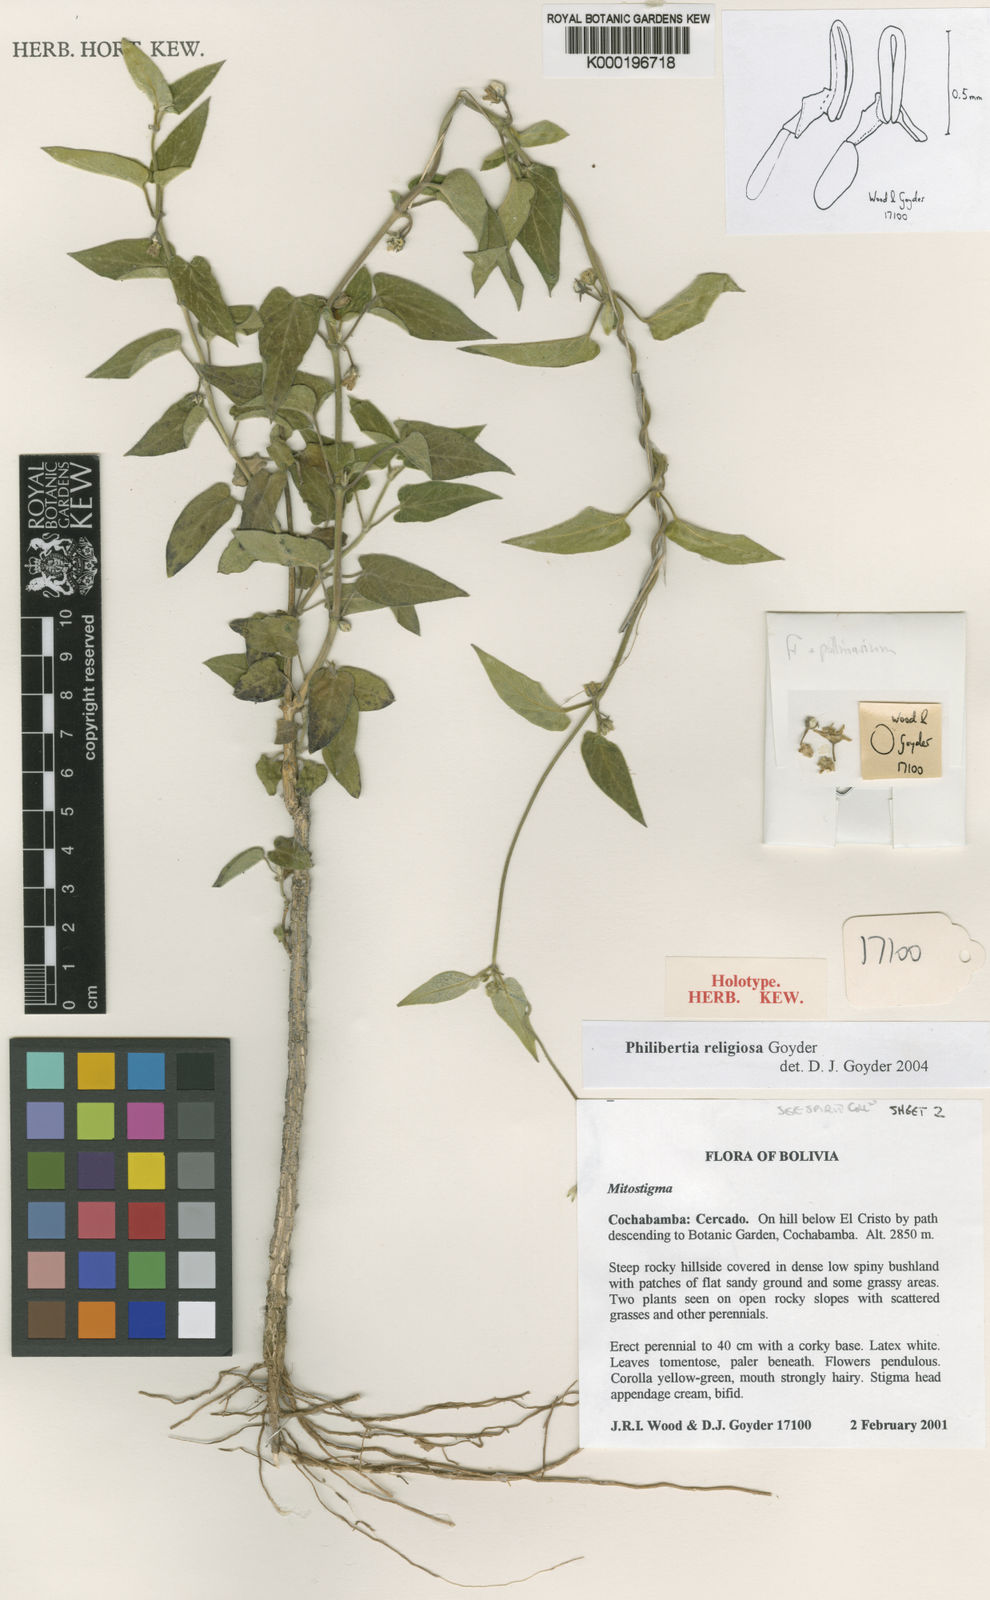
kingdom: Plantae
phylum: Tracheophyta
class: Magnoliopsida
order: Gentianales
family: Apocynaceae
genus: Philibertia
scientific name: Philibertia religiosa
